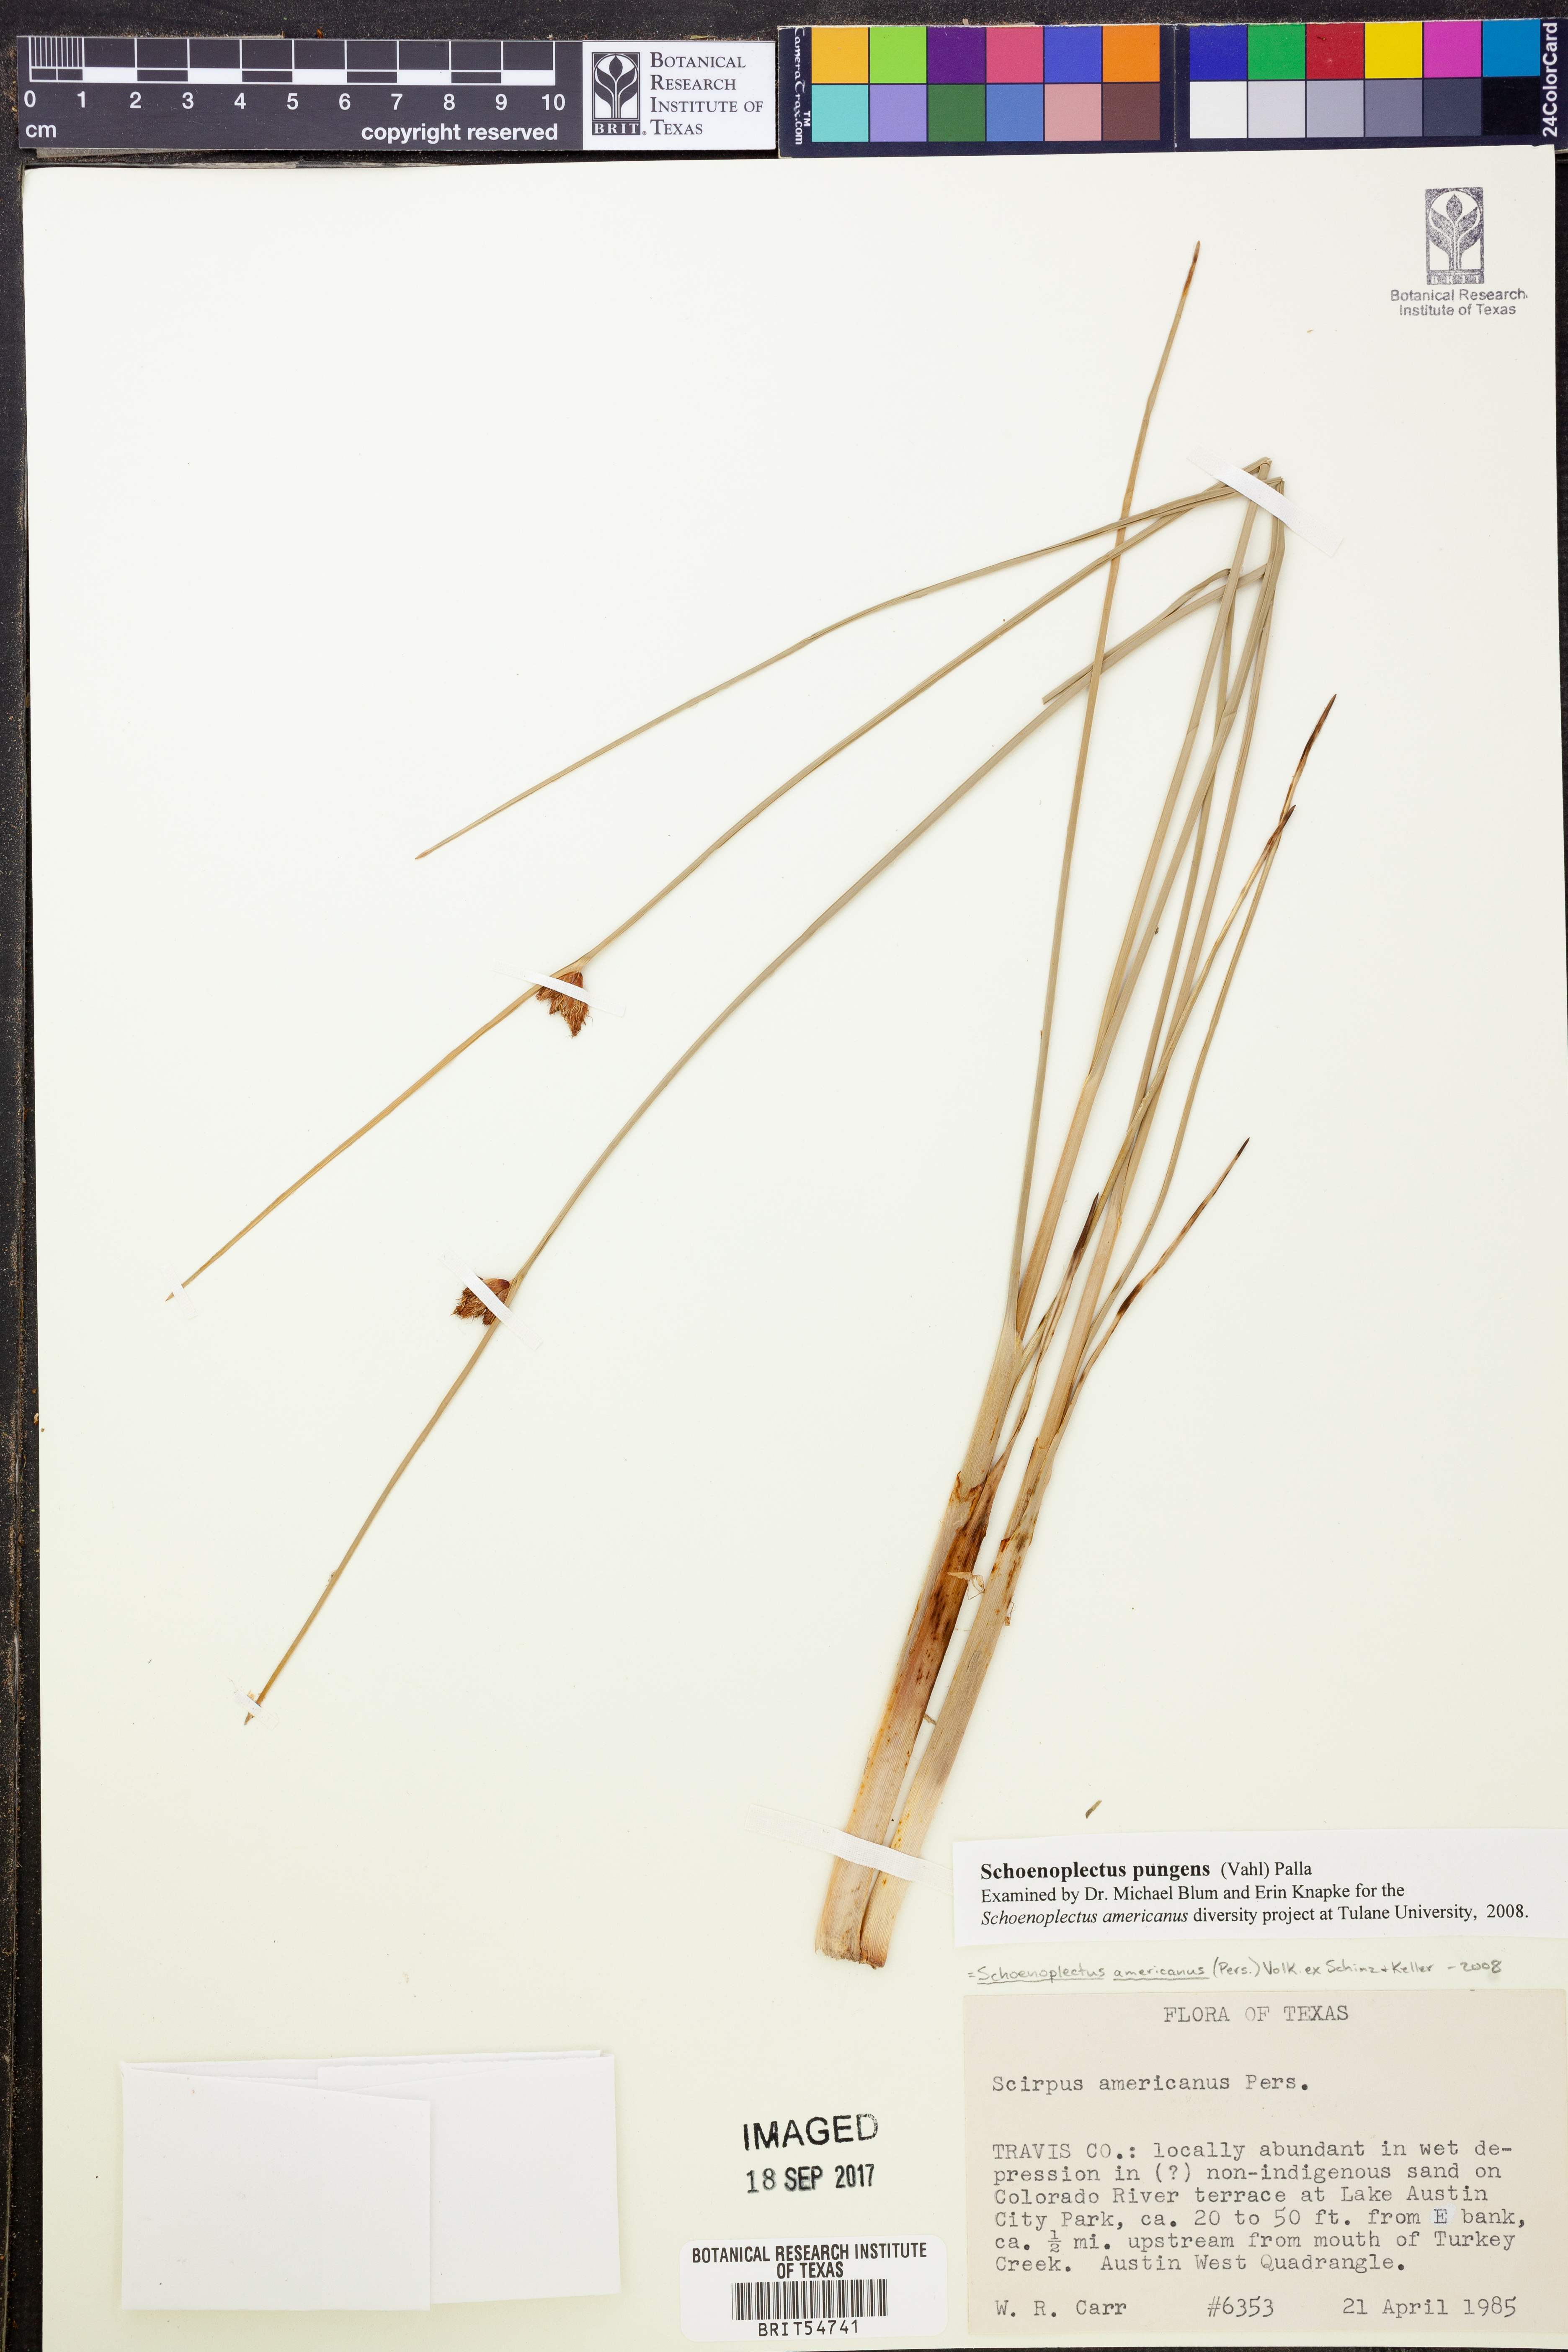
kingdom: Plantae
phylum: Tracheophyta
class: Liliopsida
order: Poales
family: Cyperaceae
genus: Schoenoplectus
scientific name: Schoenoplectus pungens
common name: Sharp club-rush
